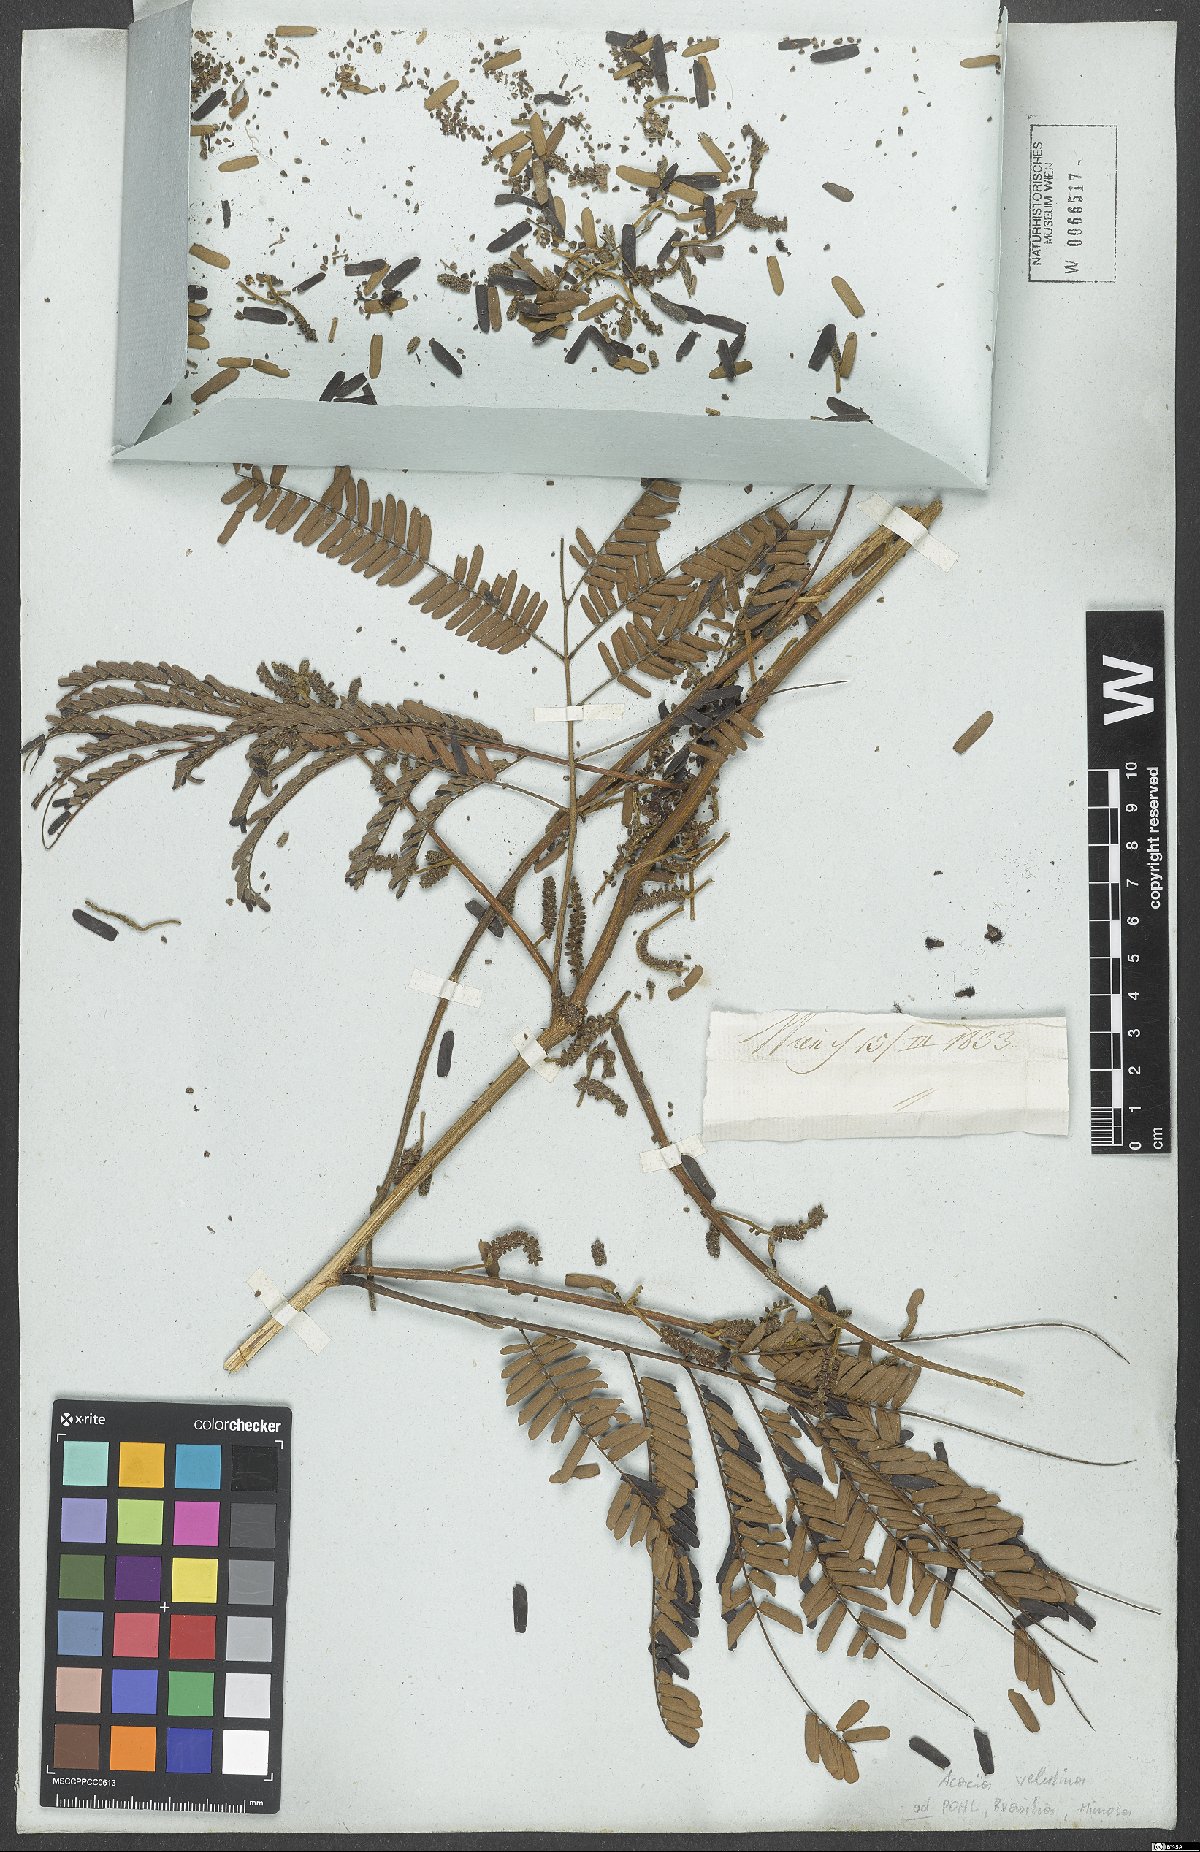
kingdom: Plantae
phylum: Tracheophyta
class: Magnoliopsida
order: Fabales
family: Fabaceae
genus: Senegalia
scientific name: Senegalia monacantha
